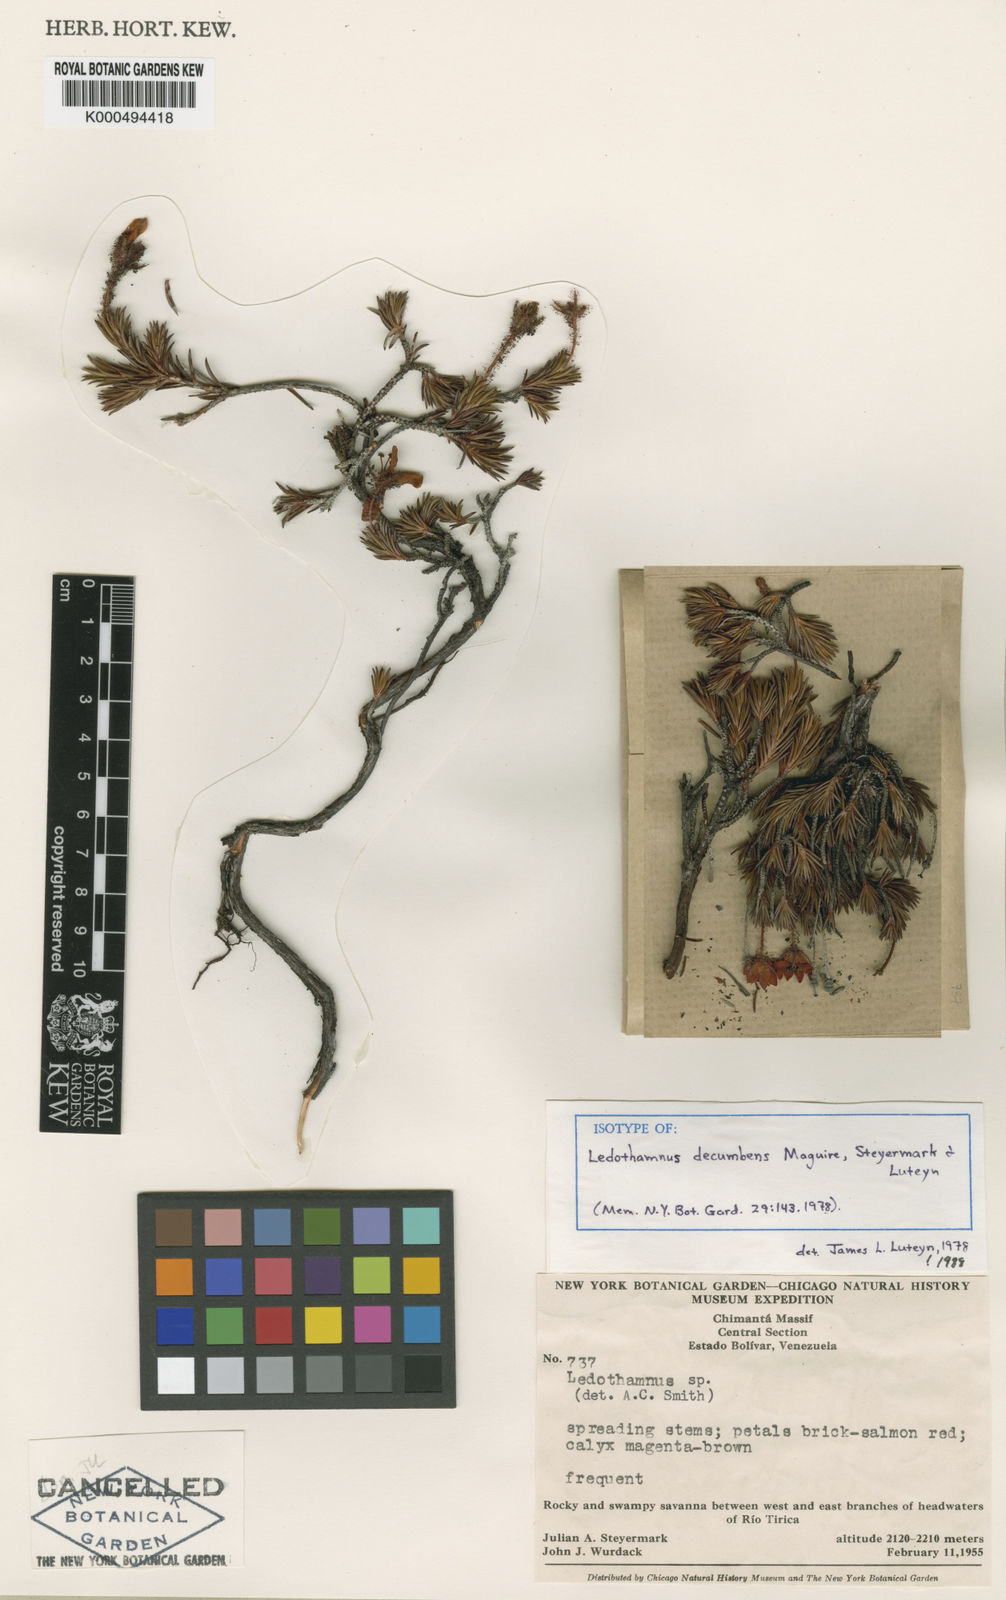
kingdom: Plantae
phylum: Tracheophyta
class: Magnoliopsida
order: Ericales
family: Ericaceae
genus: Ledothamnus
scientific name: Ledothamnus decumbens
